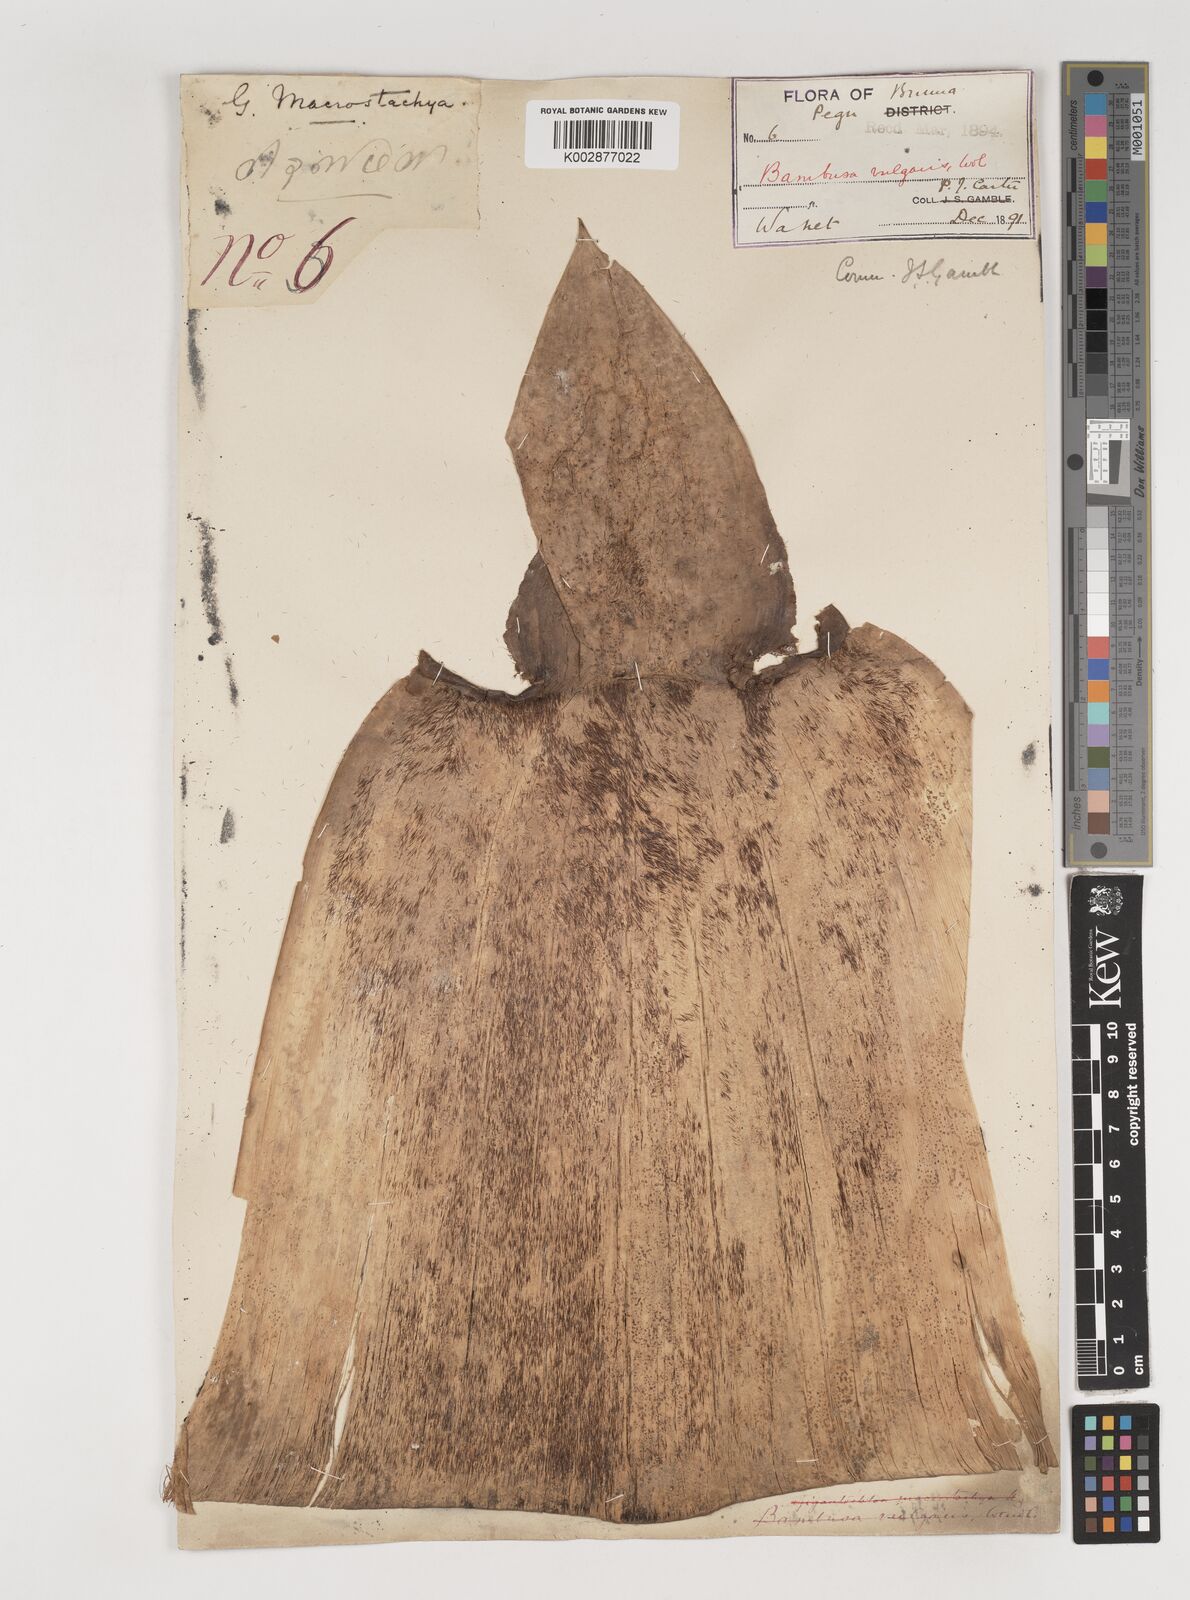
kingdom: Plantae
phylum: Tracheophyta
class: Liliopsida
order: Poales
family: Poaceae
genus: Bambusa
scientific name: Bambusa vulgaris
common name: Common bamboo
